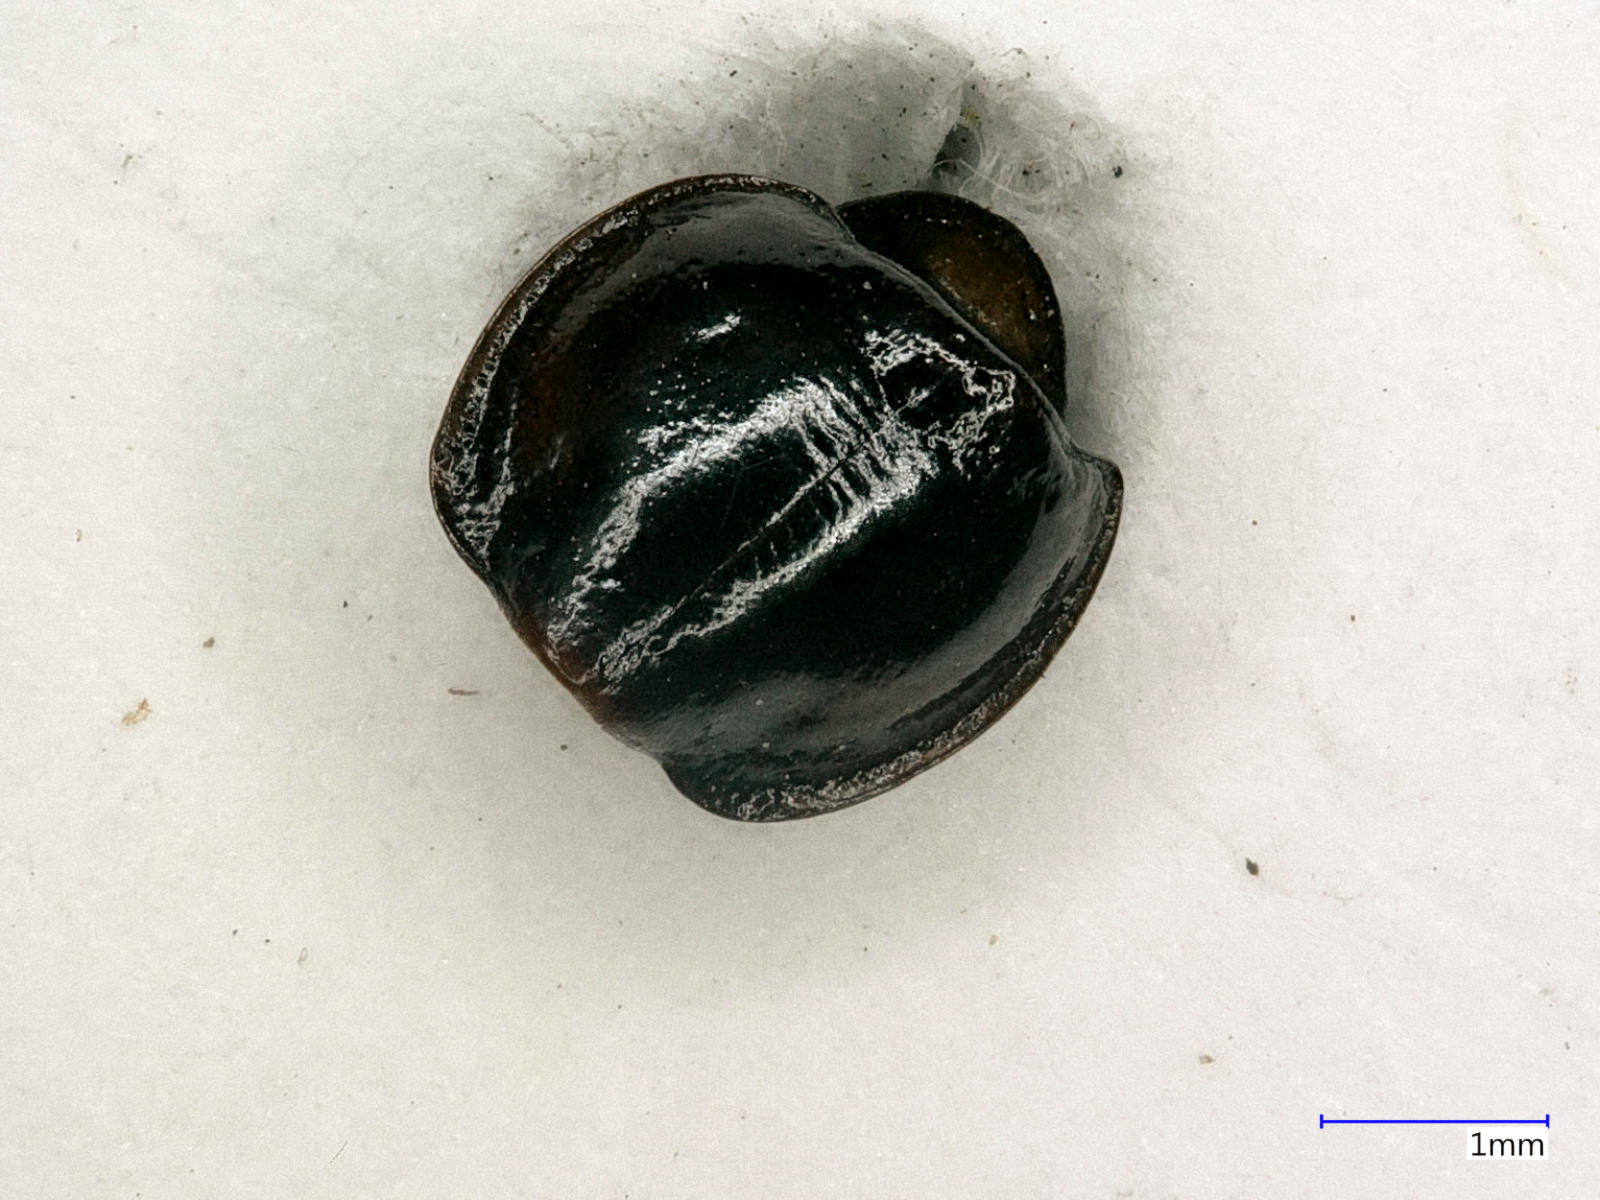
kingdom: Animalia
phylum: Arthropoda
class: Insecta
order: Coleoptera
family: Carabidae
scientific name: Carabidae
